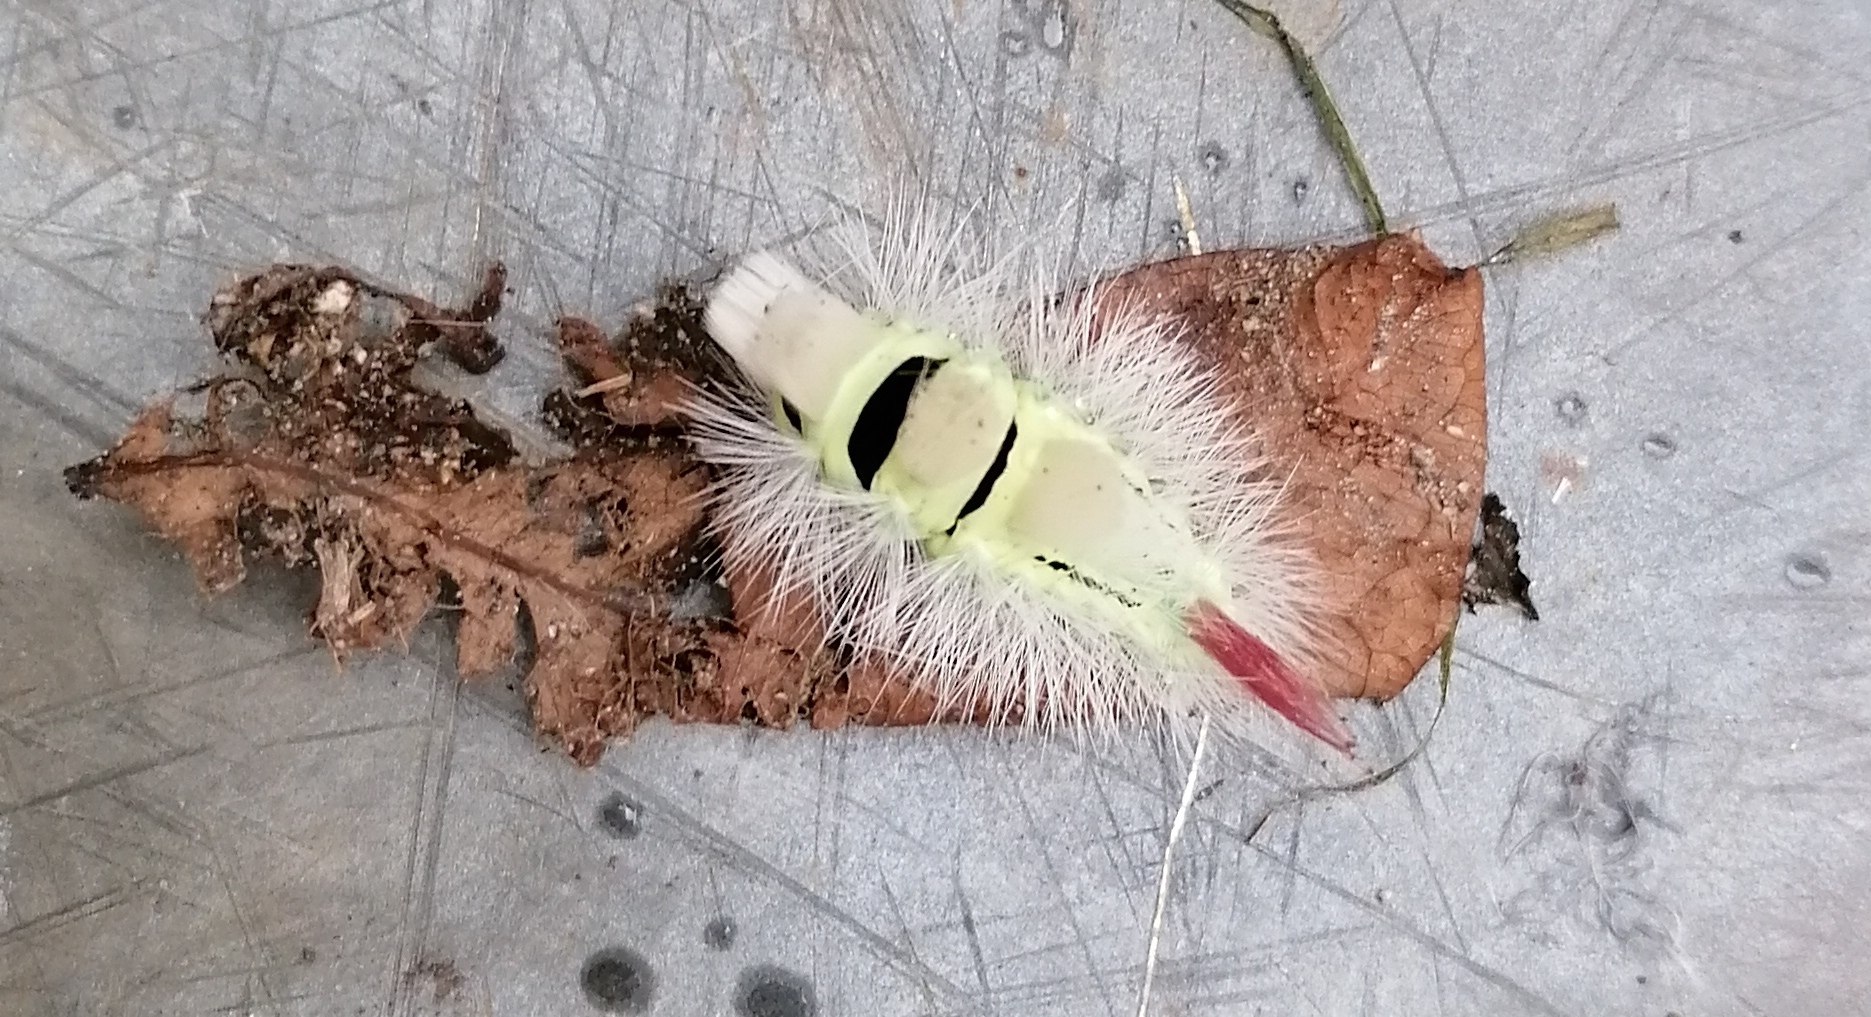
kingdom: Animalia
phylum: Arthropoda
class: Insecta
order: Lepidoptera
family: Erebidae
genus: Calliteara
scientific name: Calliteara pudibunda
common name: Bøgenonne
